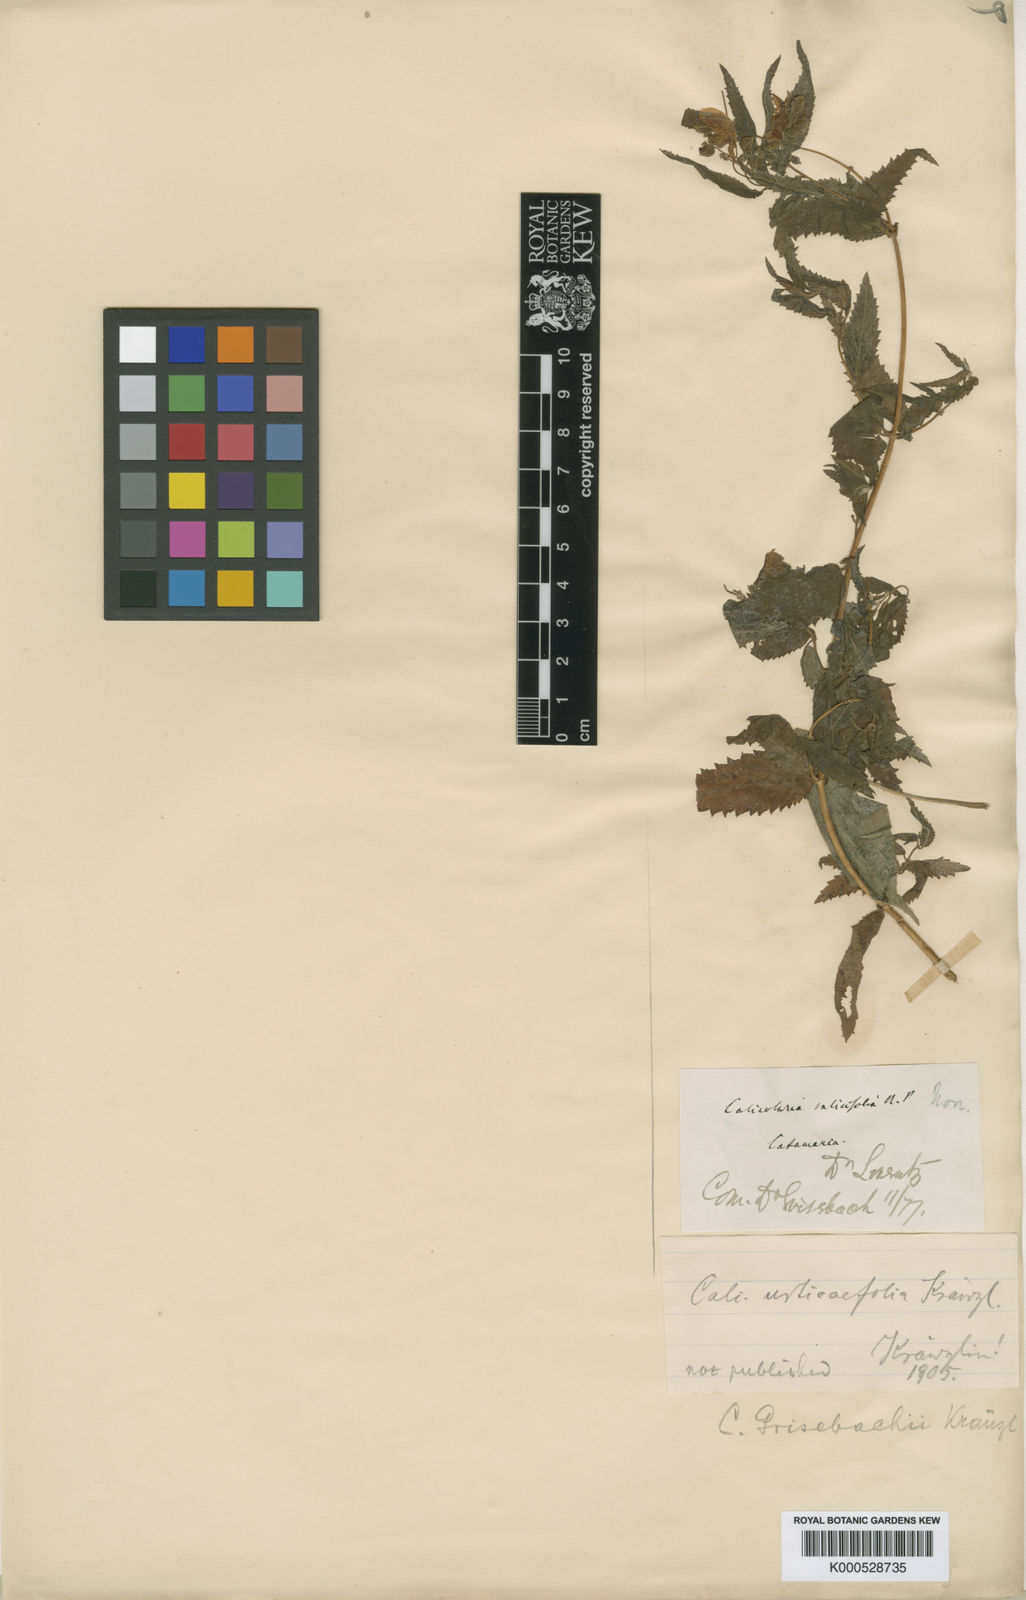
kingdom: Plantae
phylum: Tracheophyta
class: Magnoliopsida
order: Lamiales
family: Calceolariaceae
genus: Calceolaria
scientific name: Calceolaria polyclada
